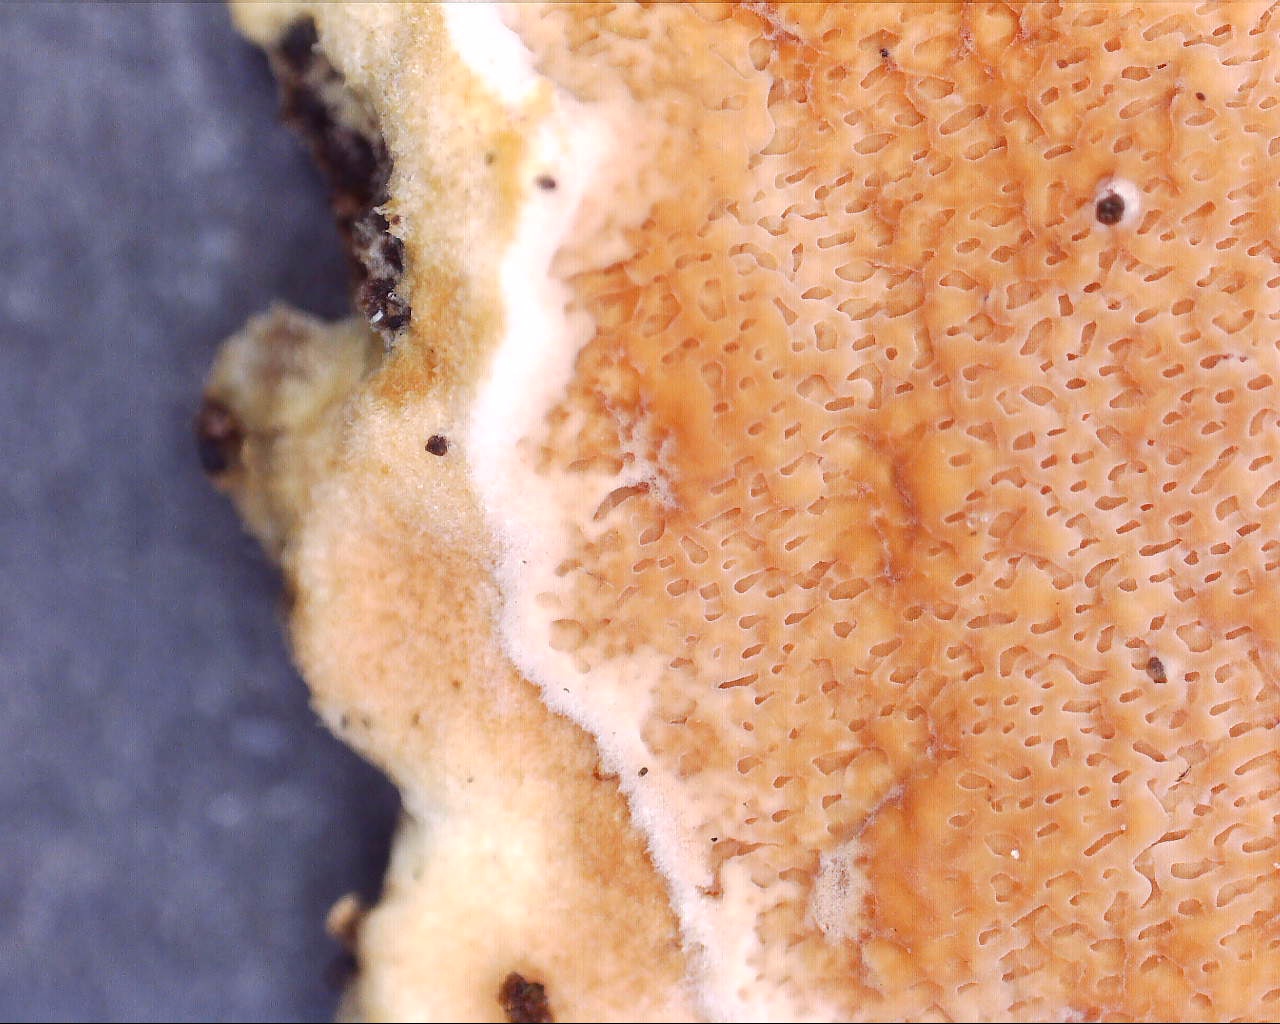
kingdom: Fungi
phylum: Basidiomycota
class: Agaricomycetes
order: Polyporales
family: Irpicaceae
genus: Meruliopsis
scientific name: Meruliopsis taxicola
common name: purpurbrun foldporesvamp
